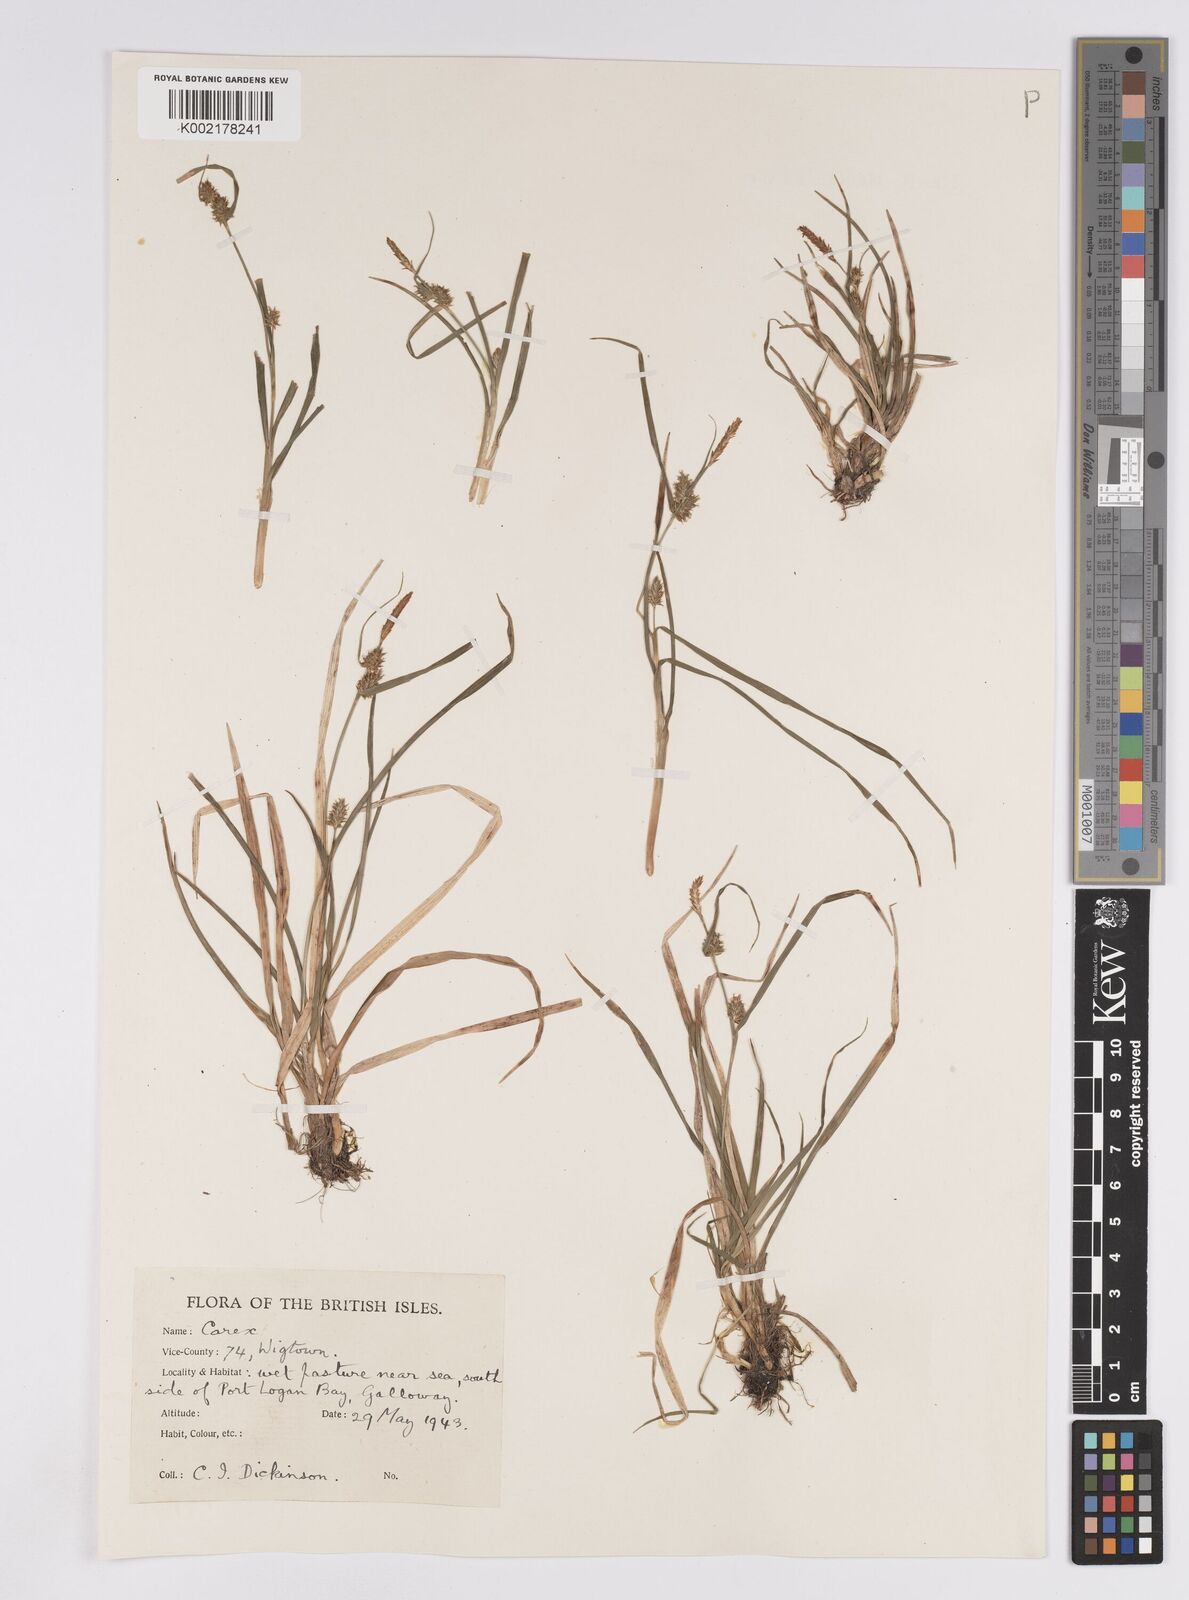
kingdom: Plantae
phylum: Tracheophyta
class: Liliopsida
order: Poales
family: Cyperaceae
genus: Carex
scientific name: Carex demissa
